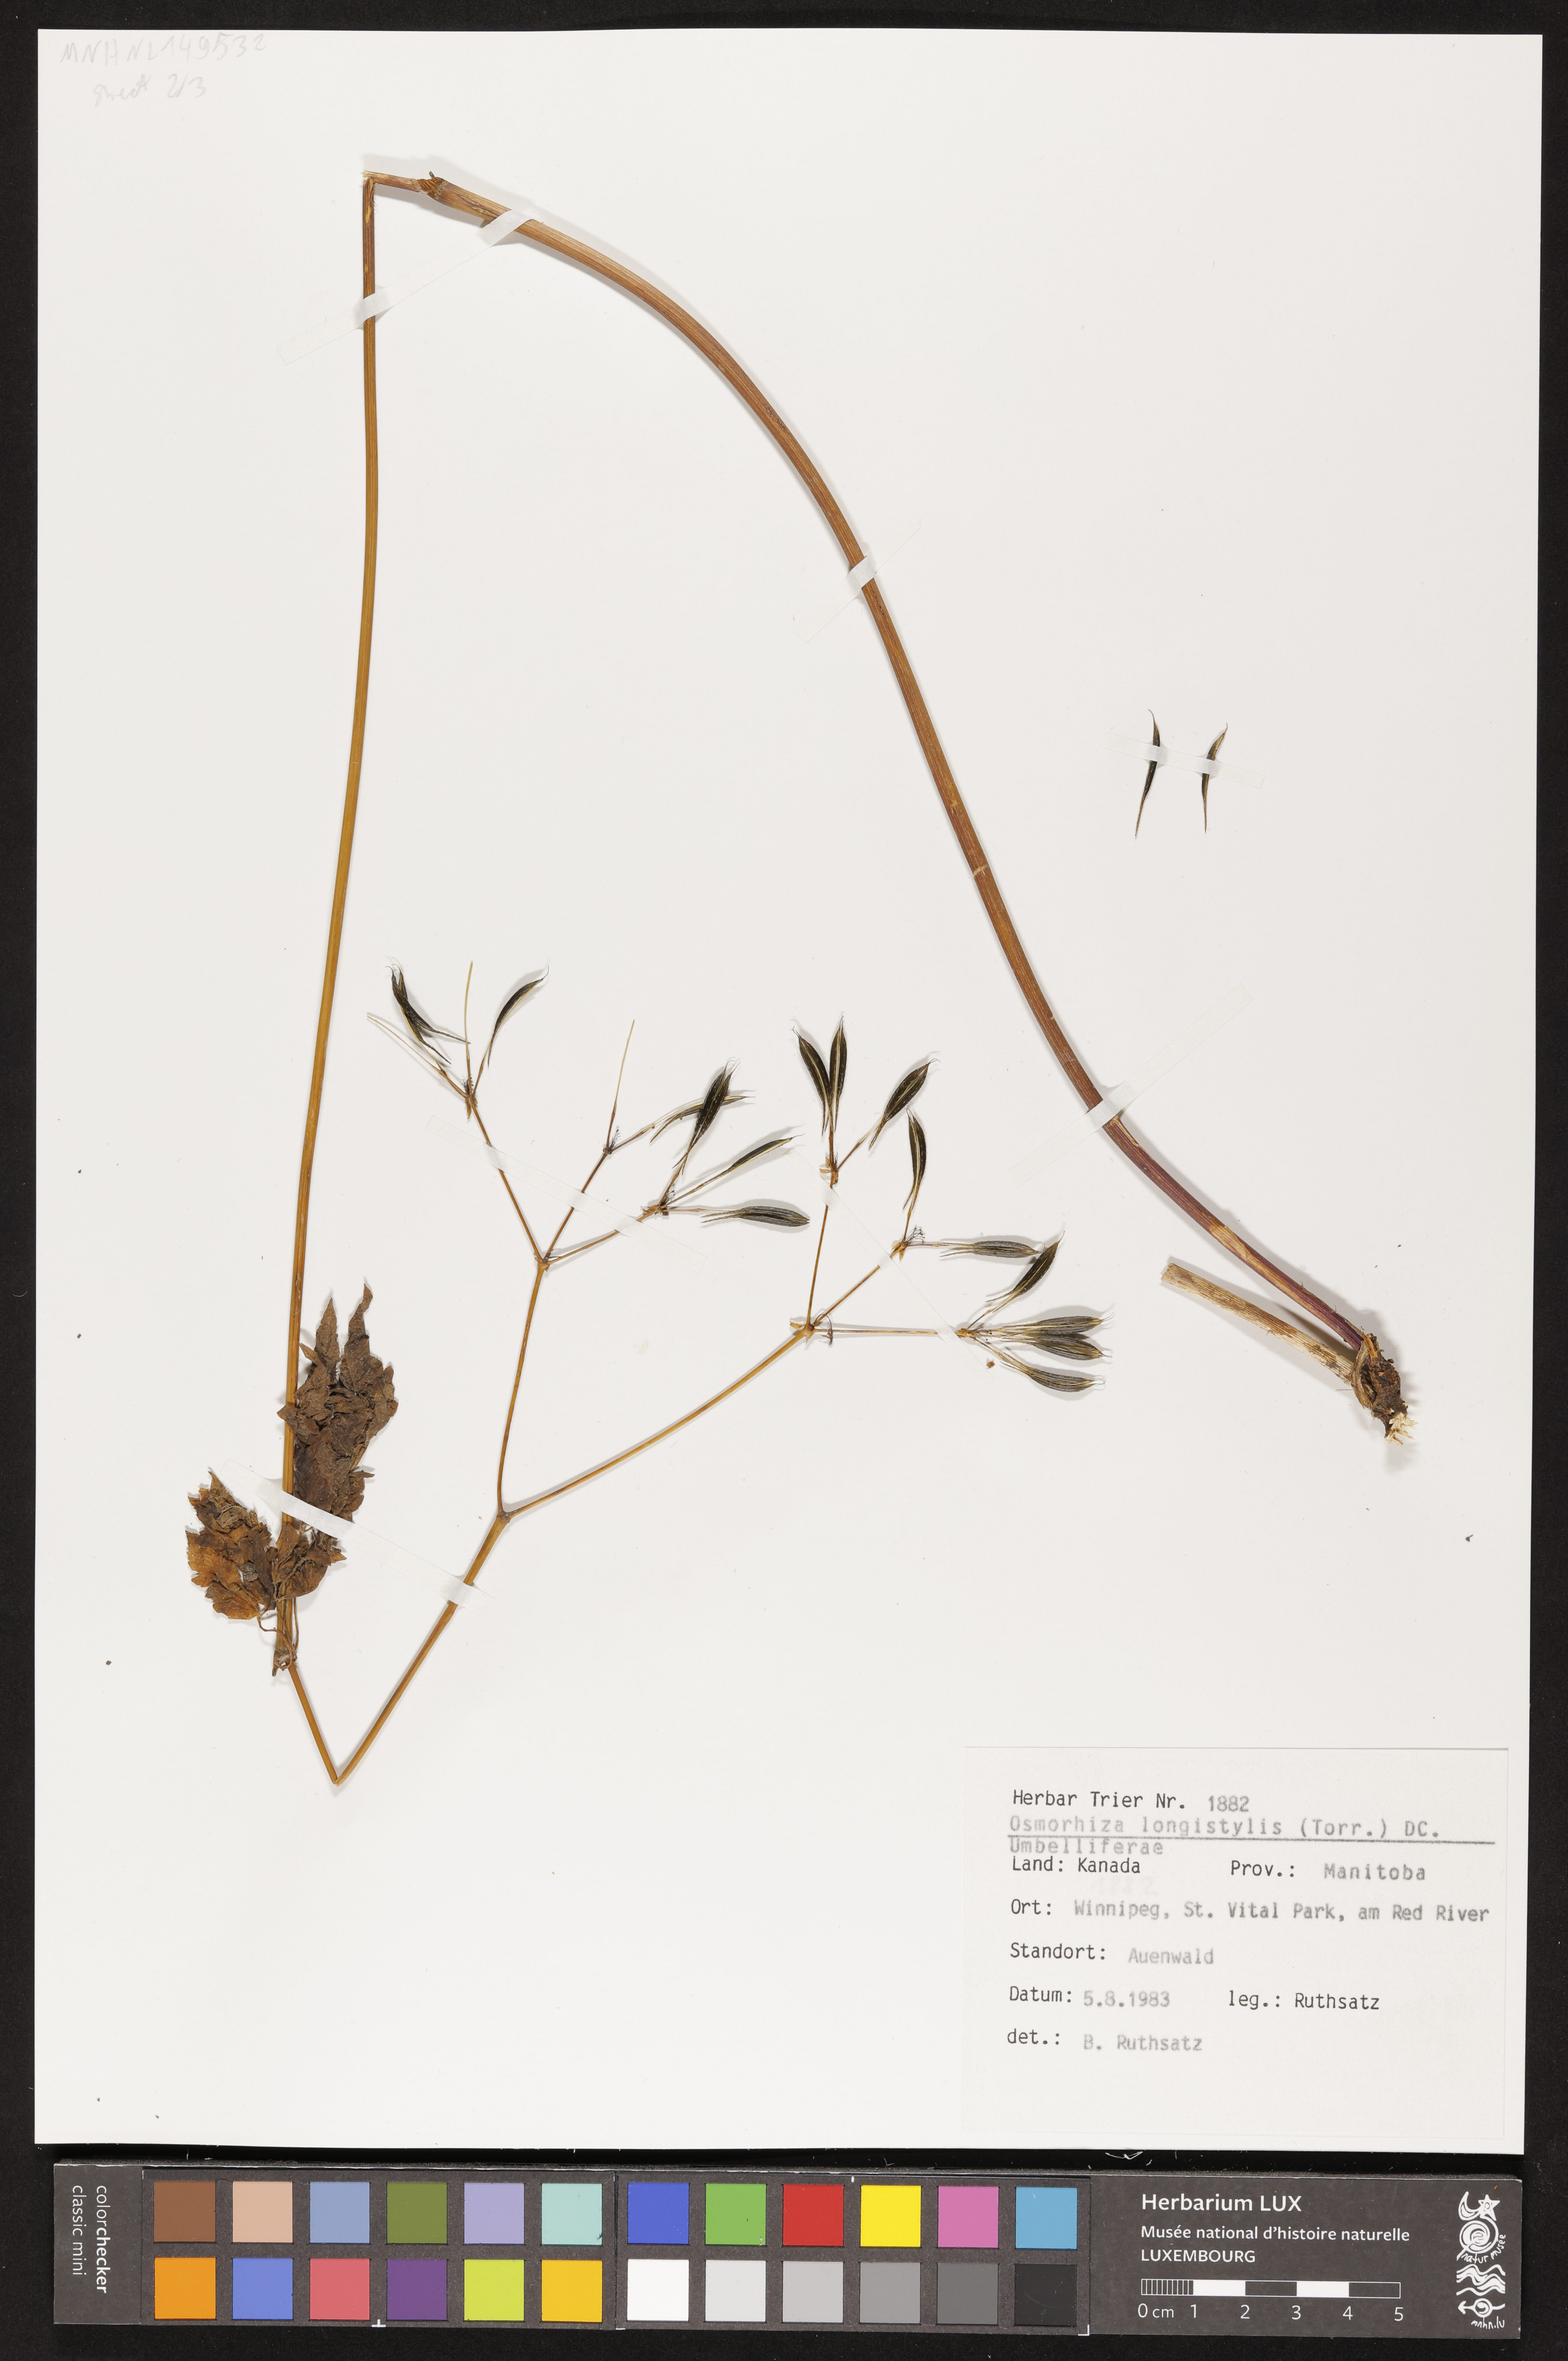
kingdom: Plantae
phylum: Tracheophyta
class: Magnoliopsida
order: Apiales
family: Apiaceae
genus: Osmorhiza
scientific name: Osmorhiza longistylis
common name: Smooth sweet cicely
